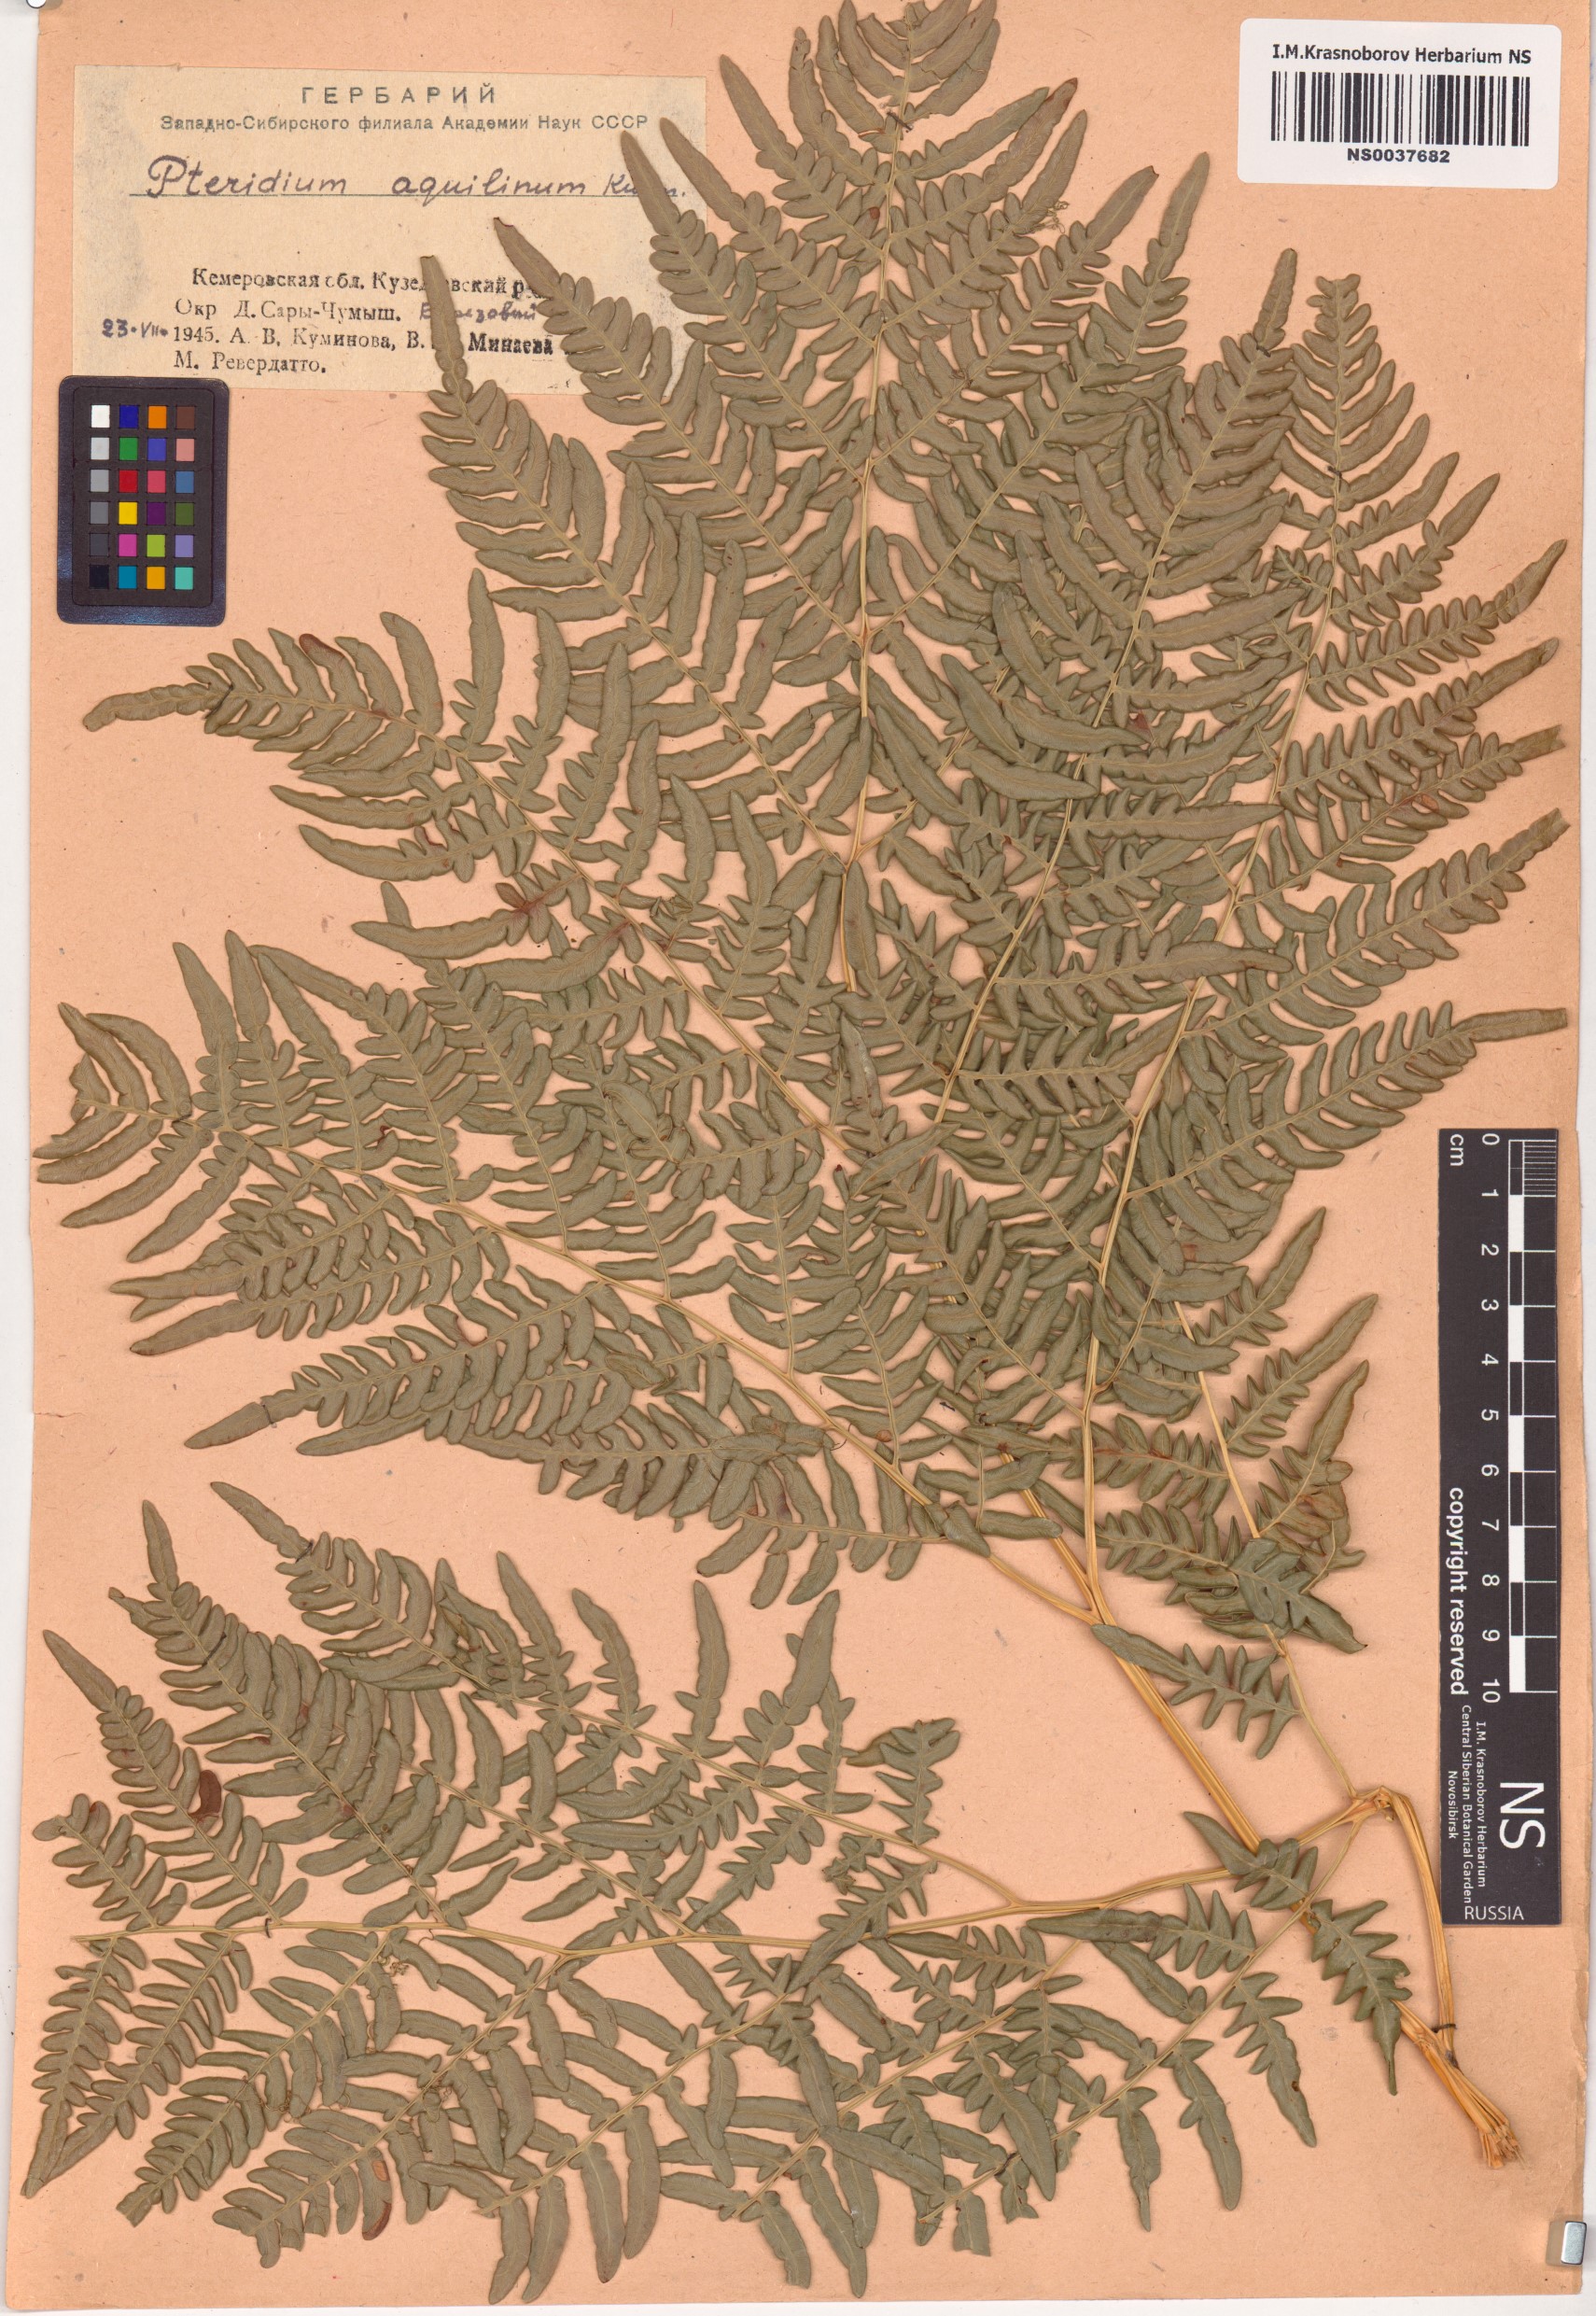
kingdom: Plantae
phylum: Tracheophyta
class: Polypodiopsida
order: Polypodiales
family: Dennstaedtiaceae
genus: Pteridium
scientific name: Pteridium aquilinum
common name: Bracken
